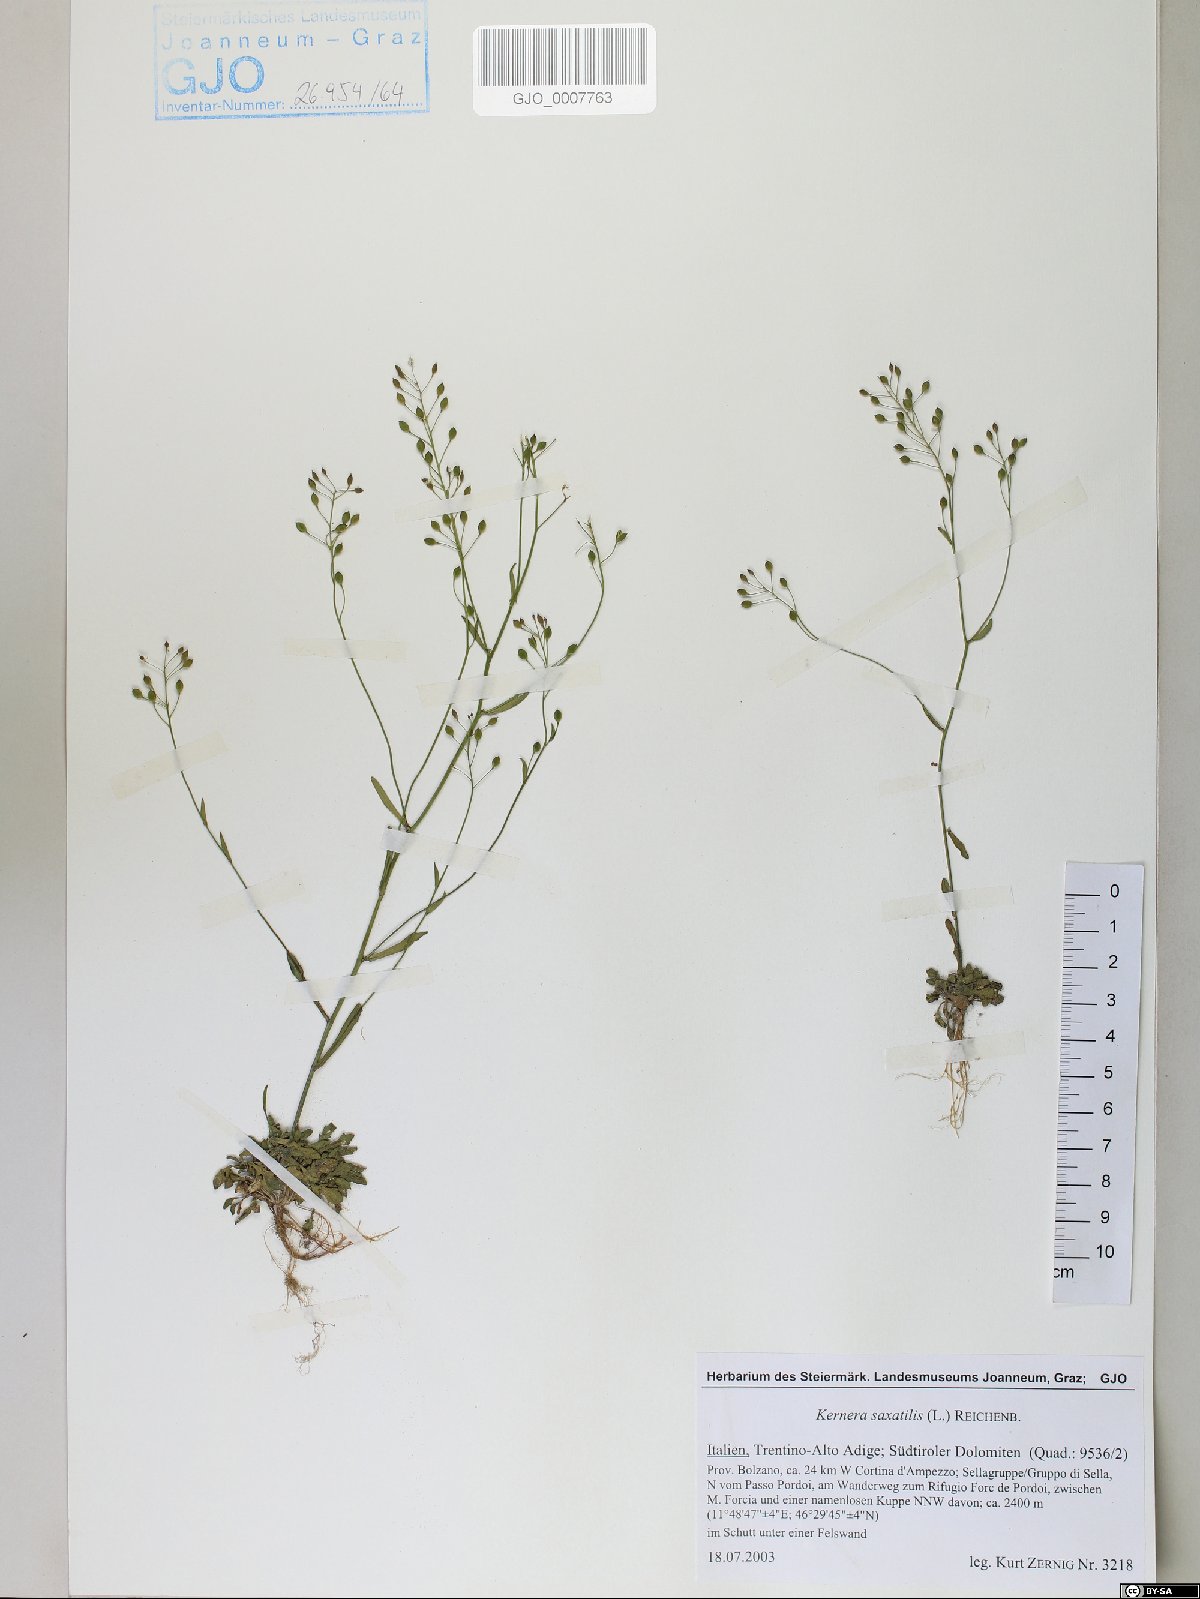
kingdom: Plantae
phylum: Tracheophyta
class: Magnoliopsida
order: Brassicales
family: Brassicaceae
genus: Kernera
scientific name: Kernera saxatilis
